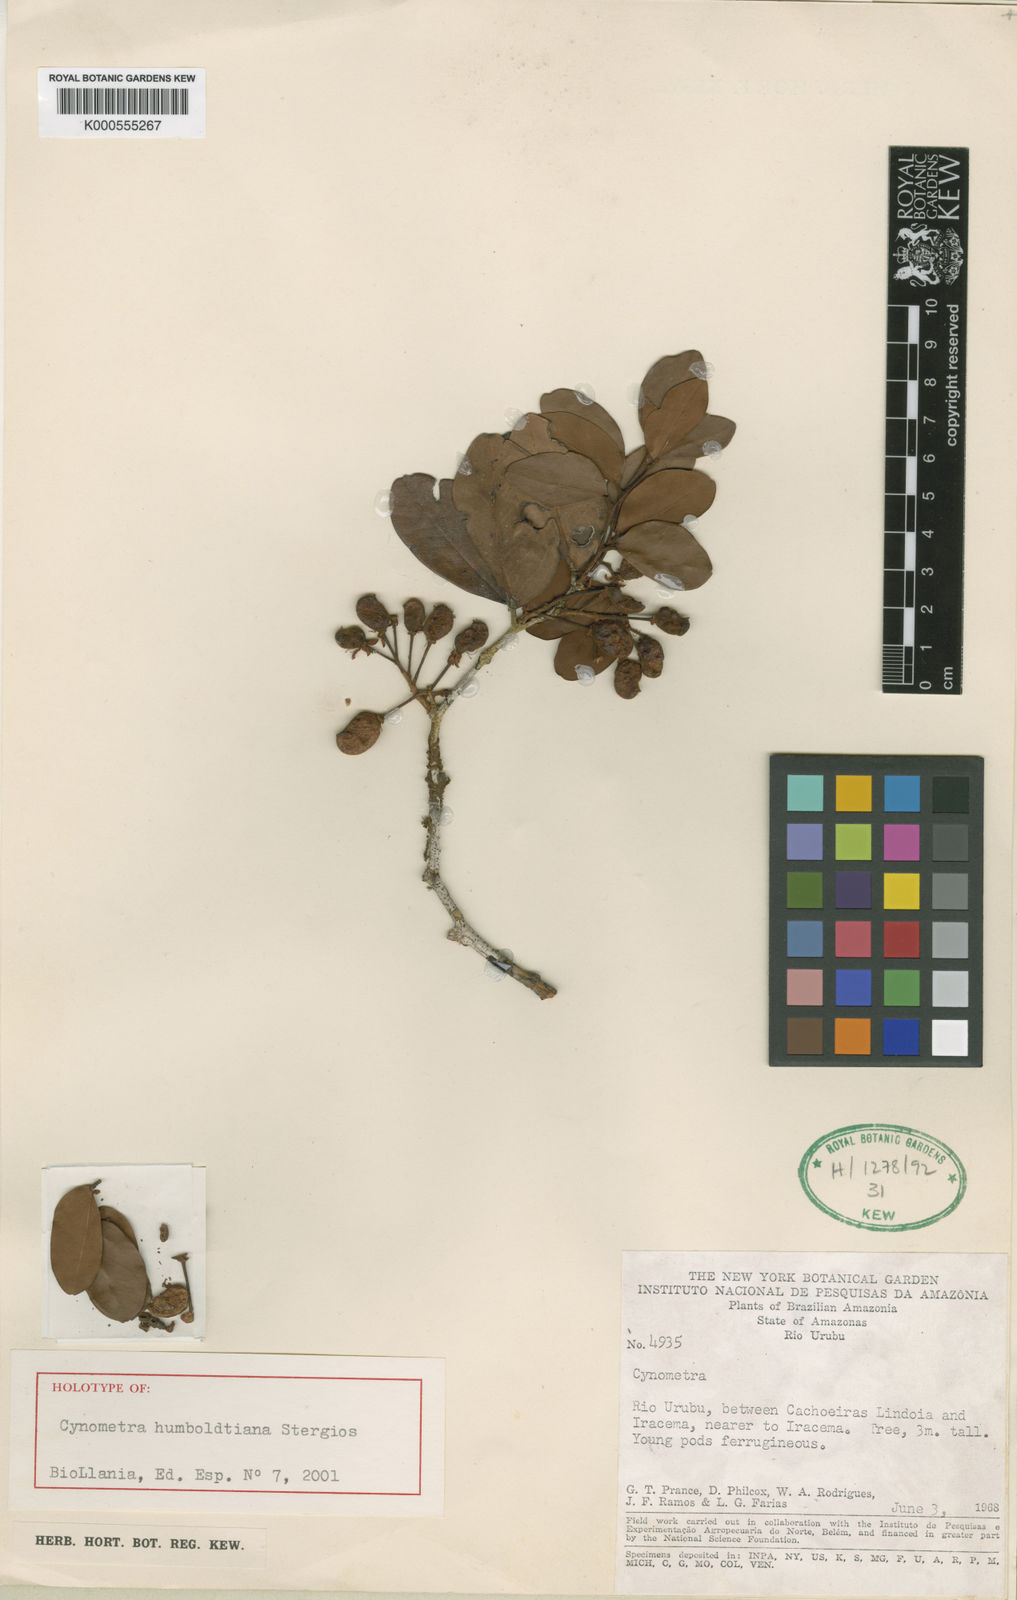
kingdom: Plantae
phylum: Tracheophyta
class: Magnoliopsida
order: Fabales
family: Fabaceae
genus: Cynometra
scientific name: Cynometra humboldtiana
